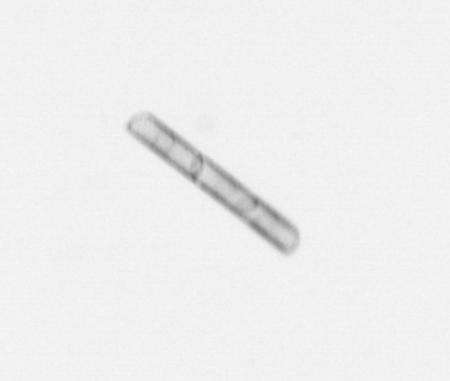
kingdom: Chromista
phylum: Ochrophyta
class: Bacillariophyceae
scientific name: Bacillariophyceae
